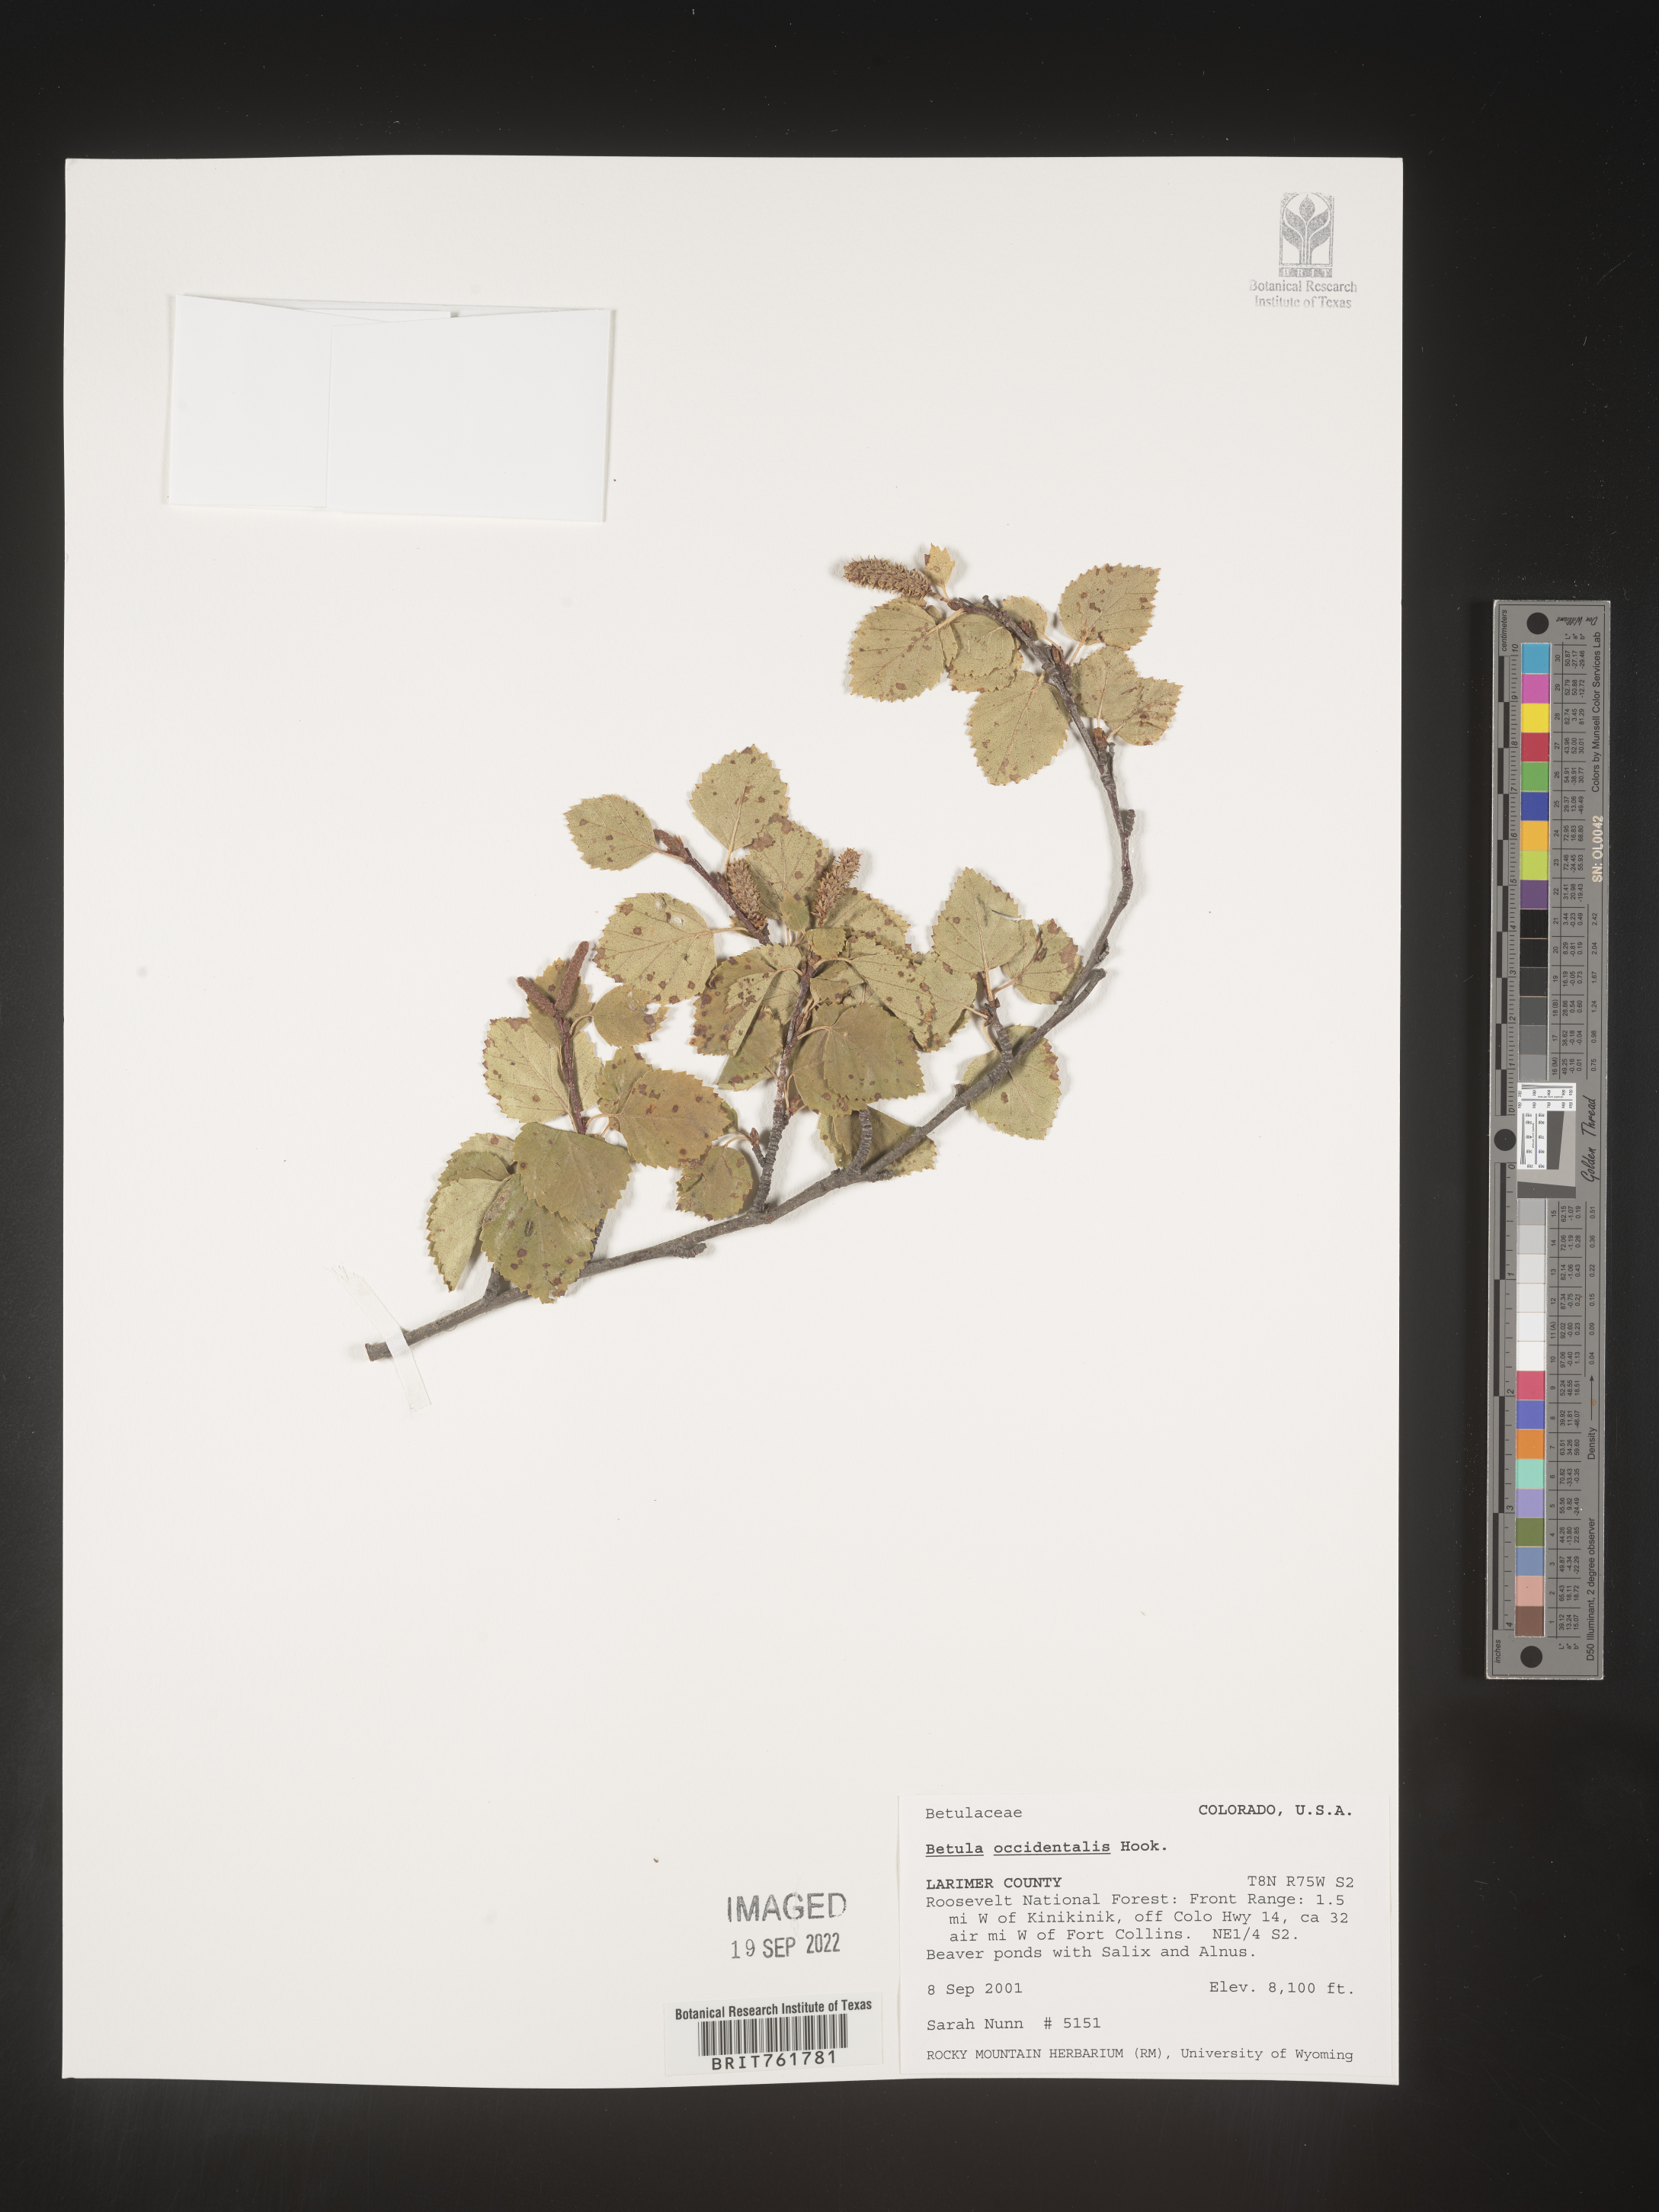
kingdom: Plantae
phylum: Tracheophyta
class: Magnoliopsida
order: Fagales
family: Betulaceae
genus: Betula
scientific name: Betula occidentalis
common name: River birch
